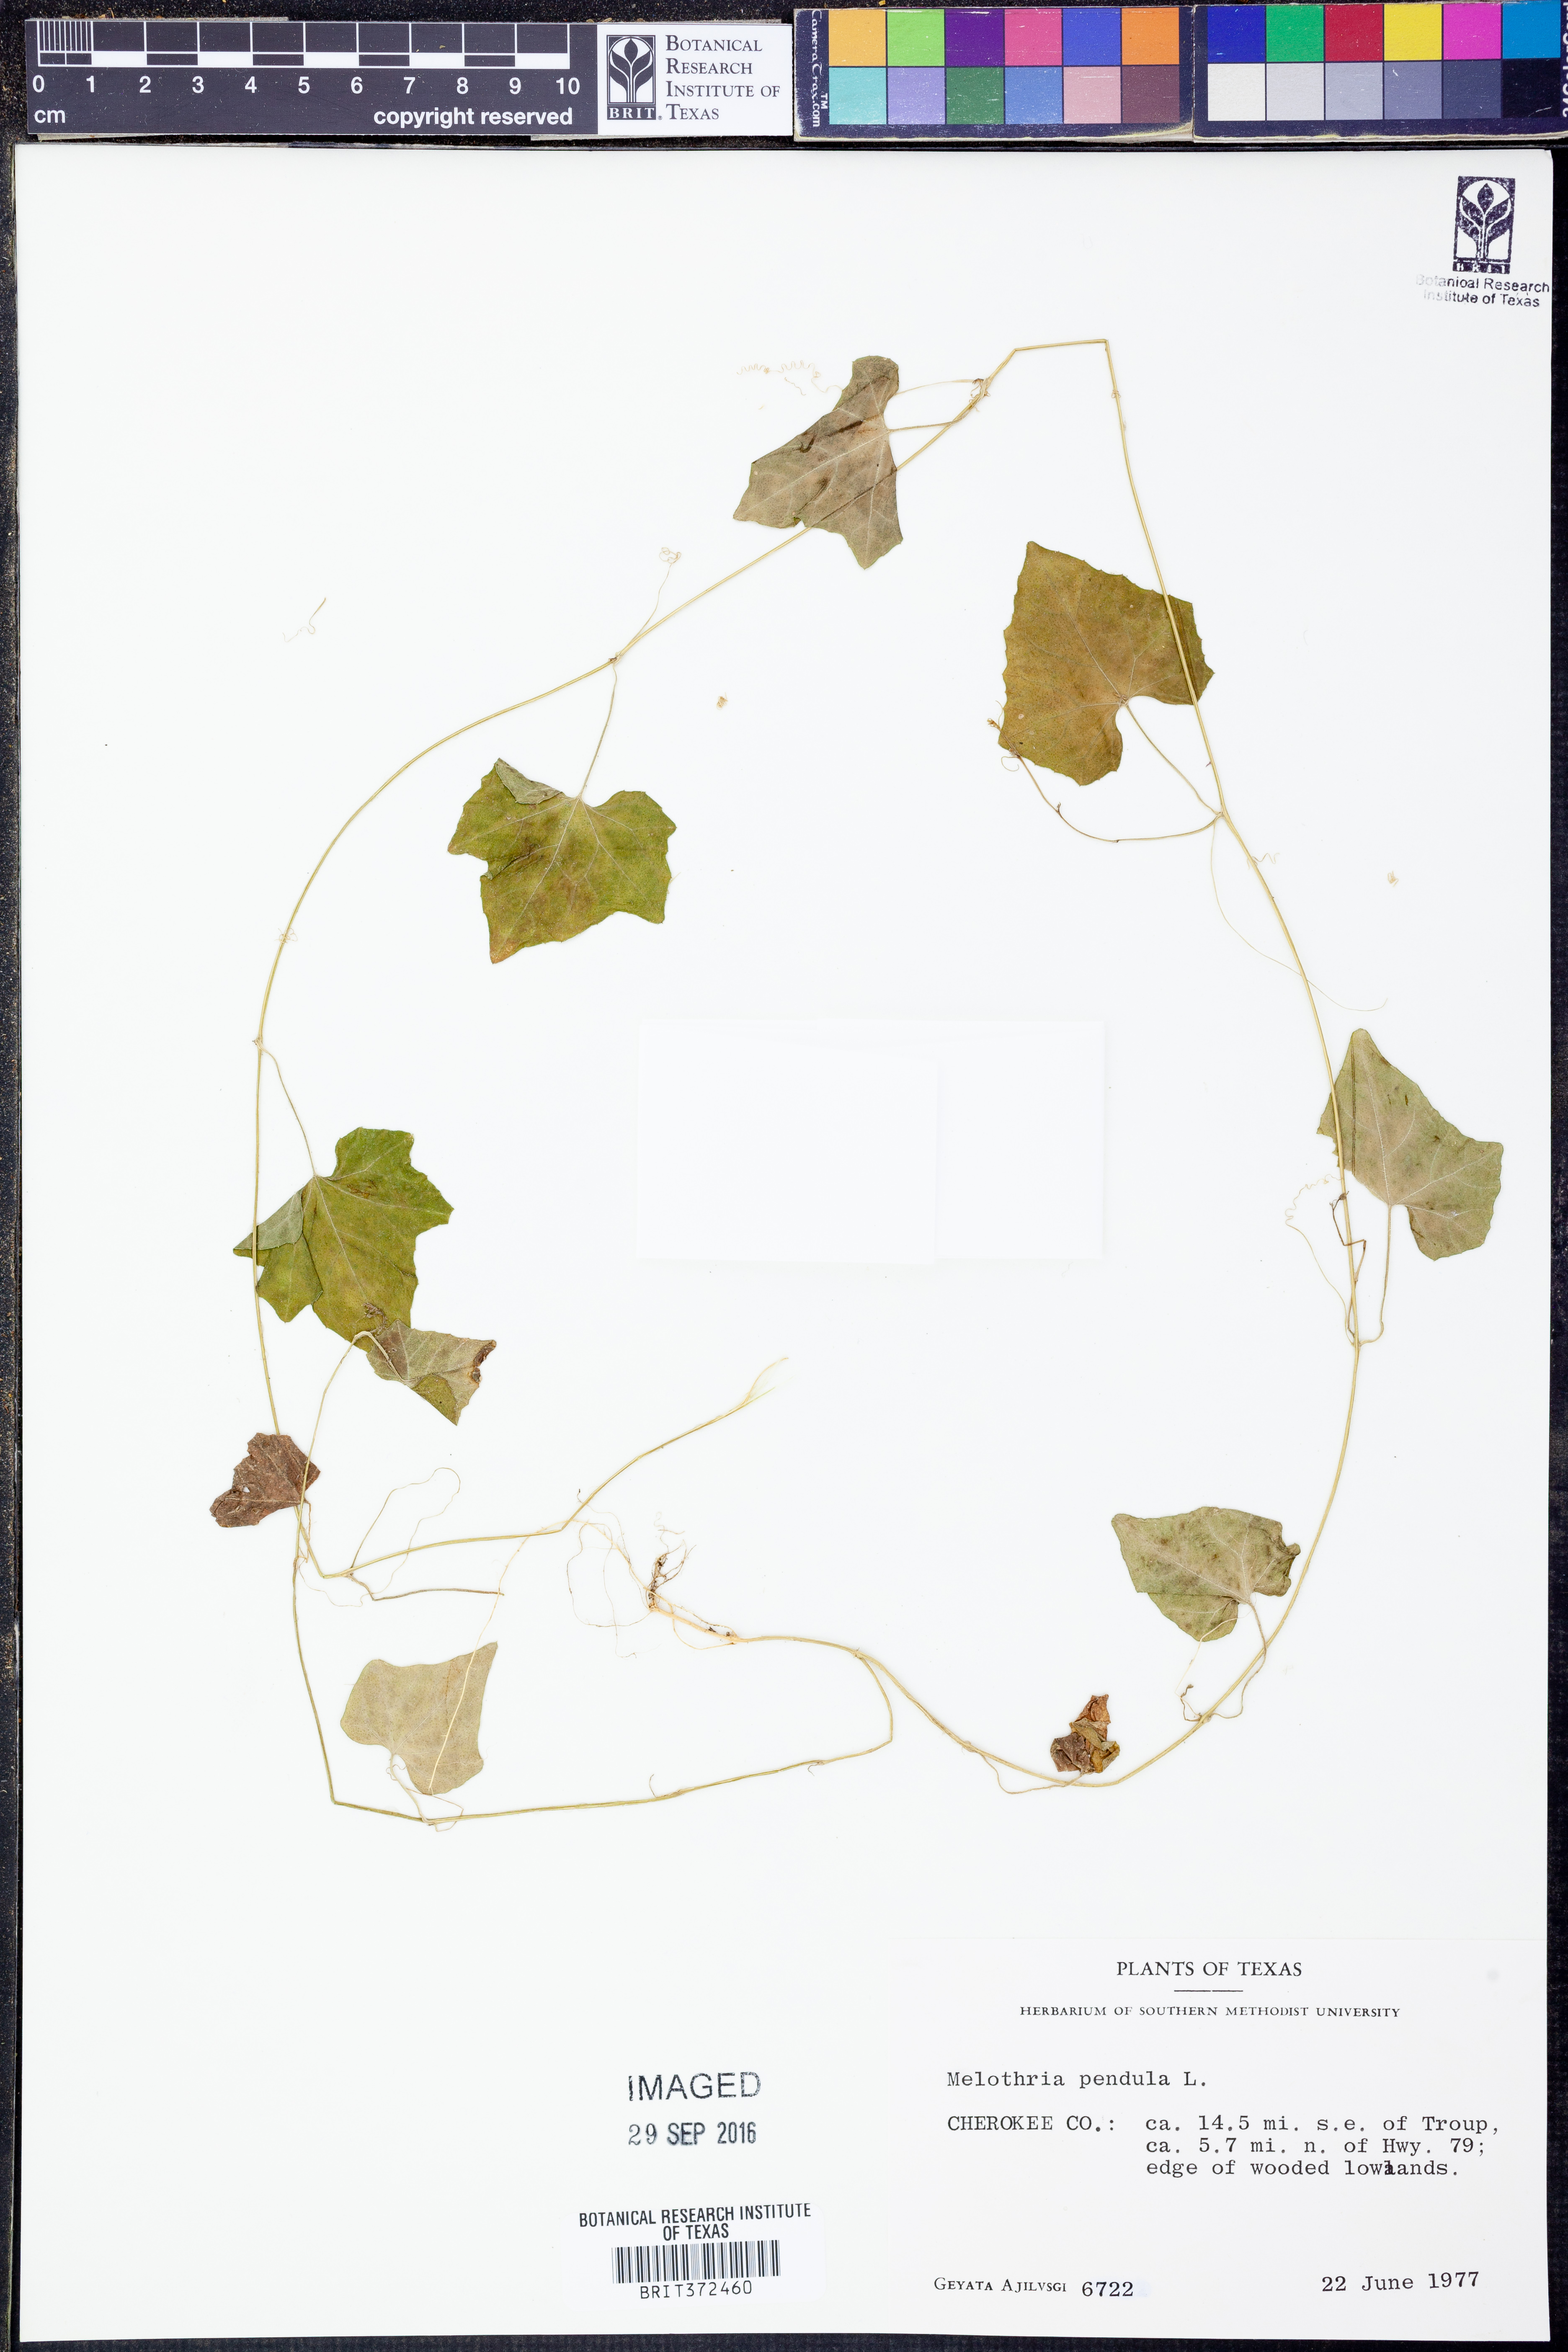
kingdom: Plantae
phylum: Tracheophyta
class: Magnoliopsida
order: Cucurbitales
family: Cucurbitaceae
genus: Melothria
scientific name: Melothria pendula
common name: Creeping-cucumber
